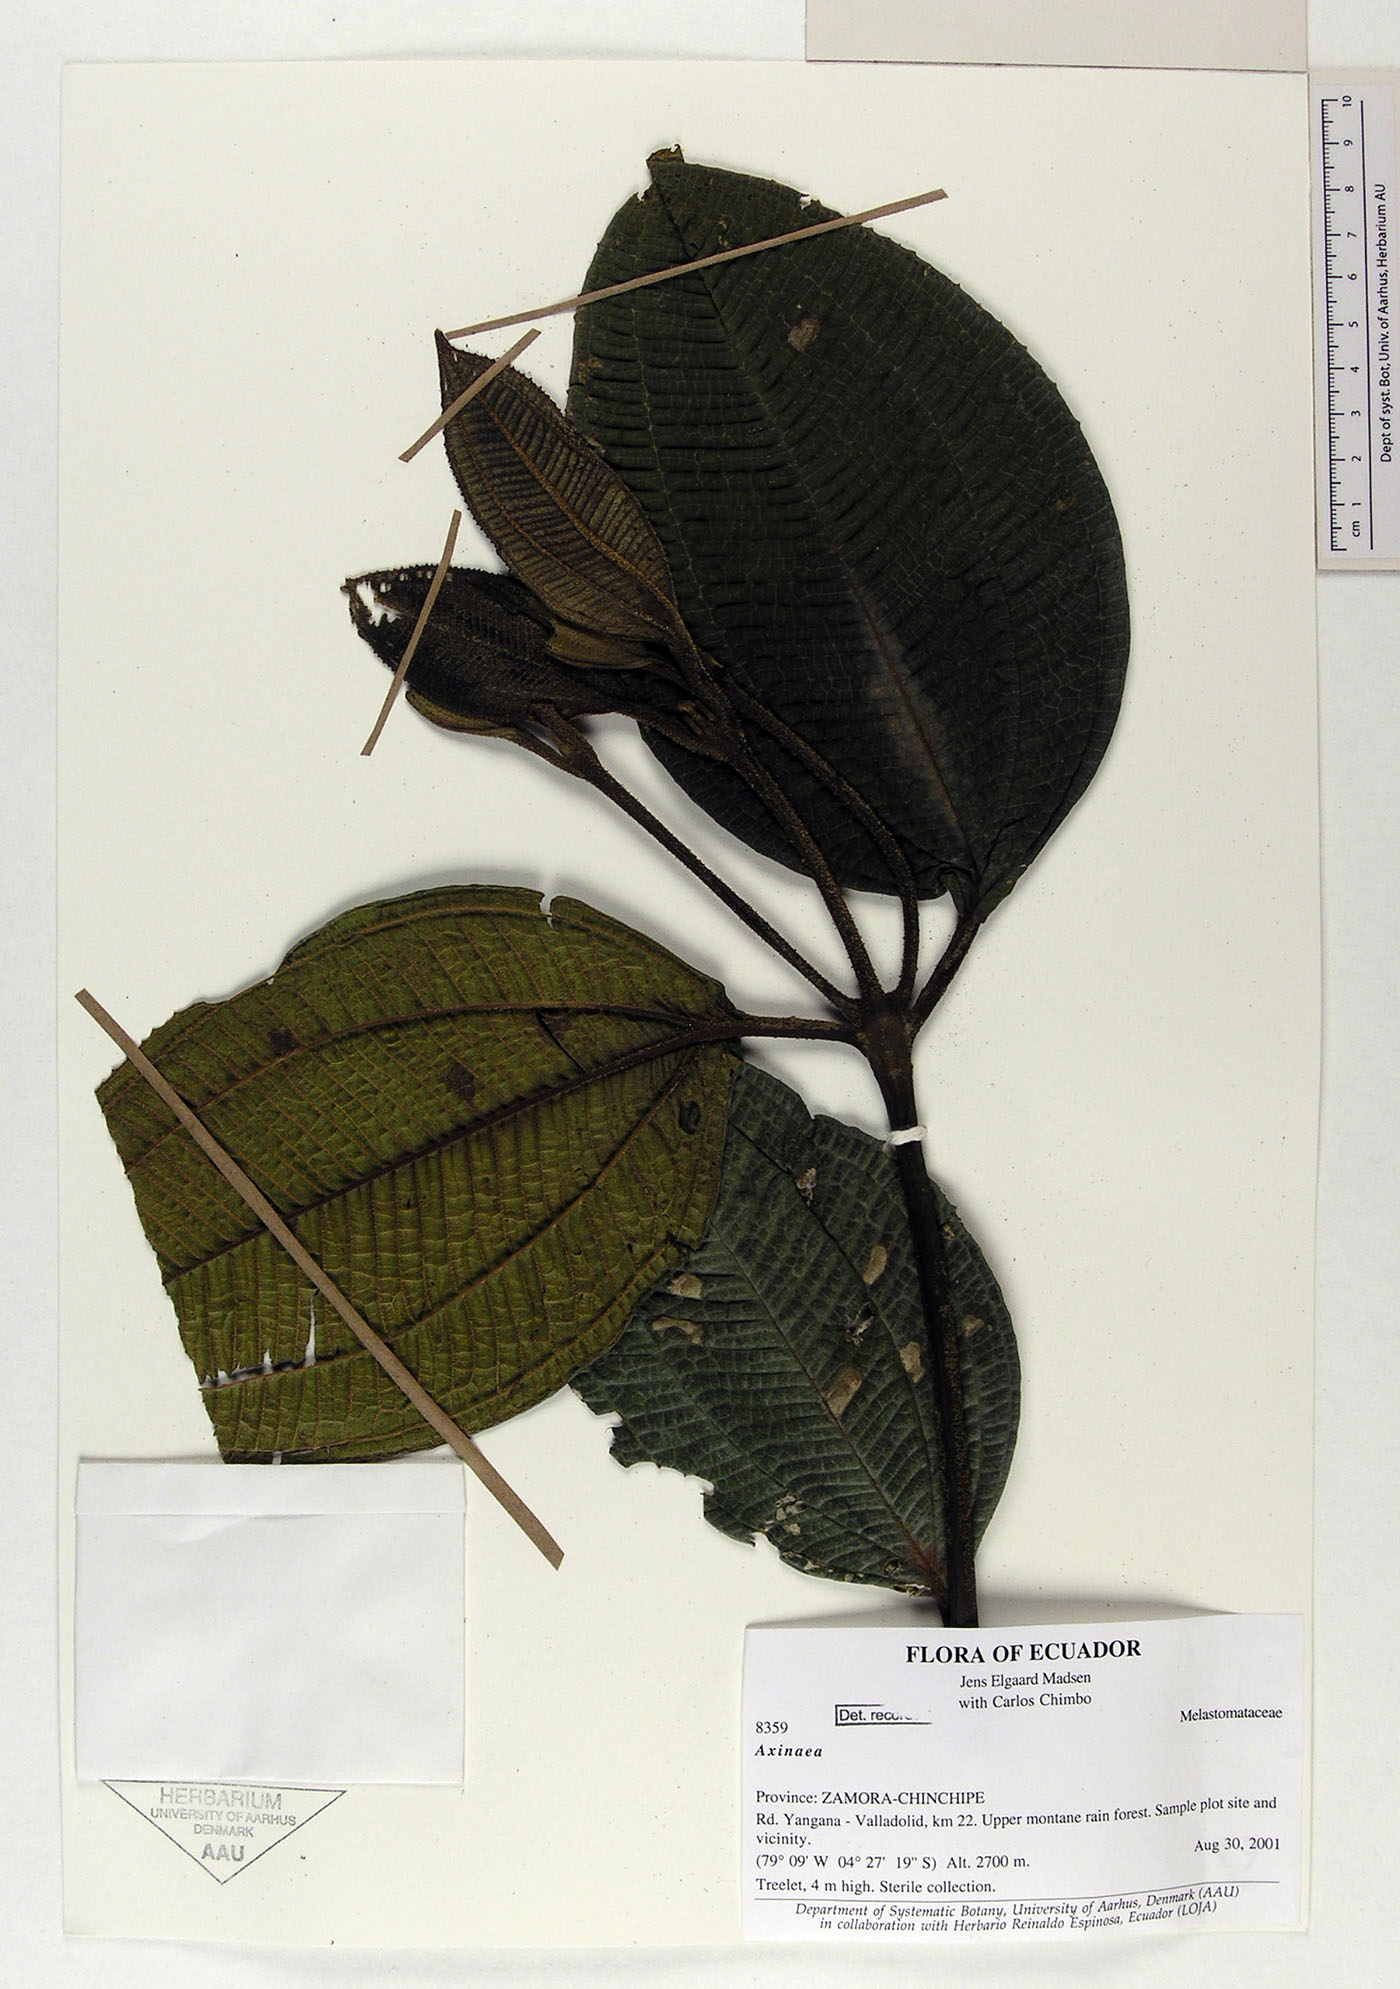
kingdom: Plantae
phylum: Tracheophyta
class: Magnoliopsida
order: Myrtales
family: Melastomataceae
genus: Axinaea
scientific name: Axinaea
